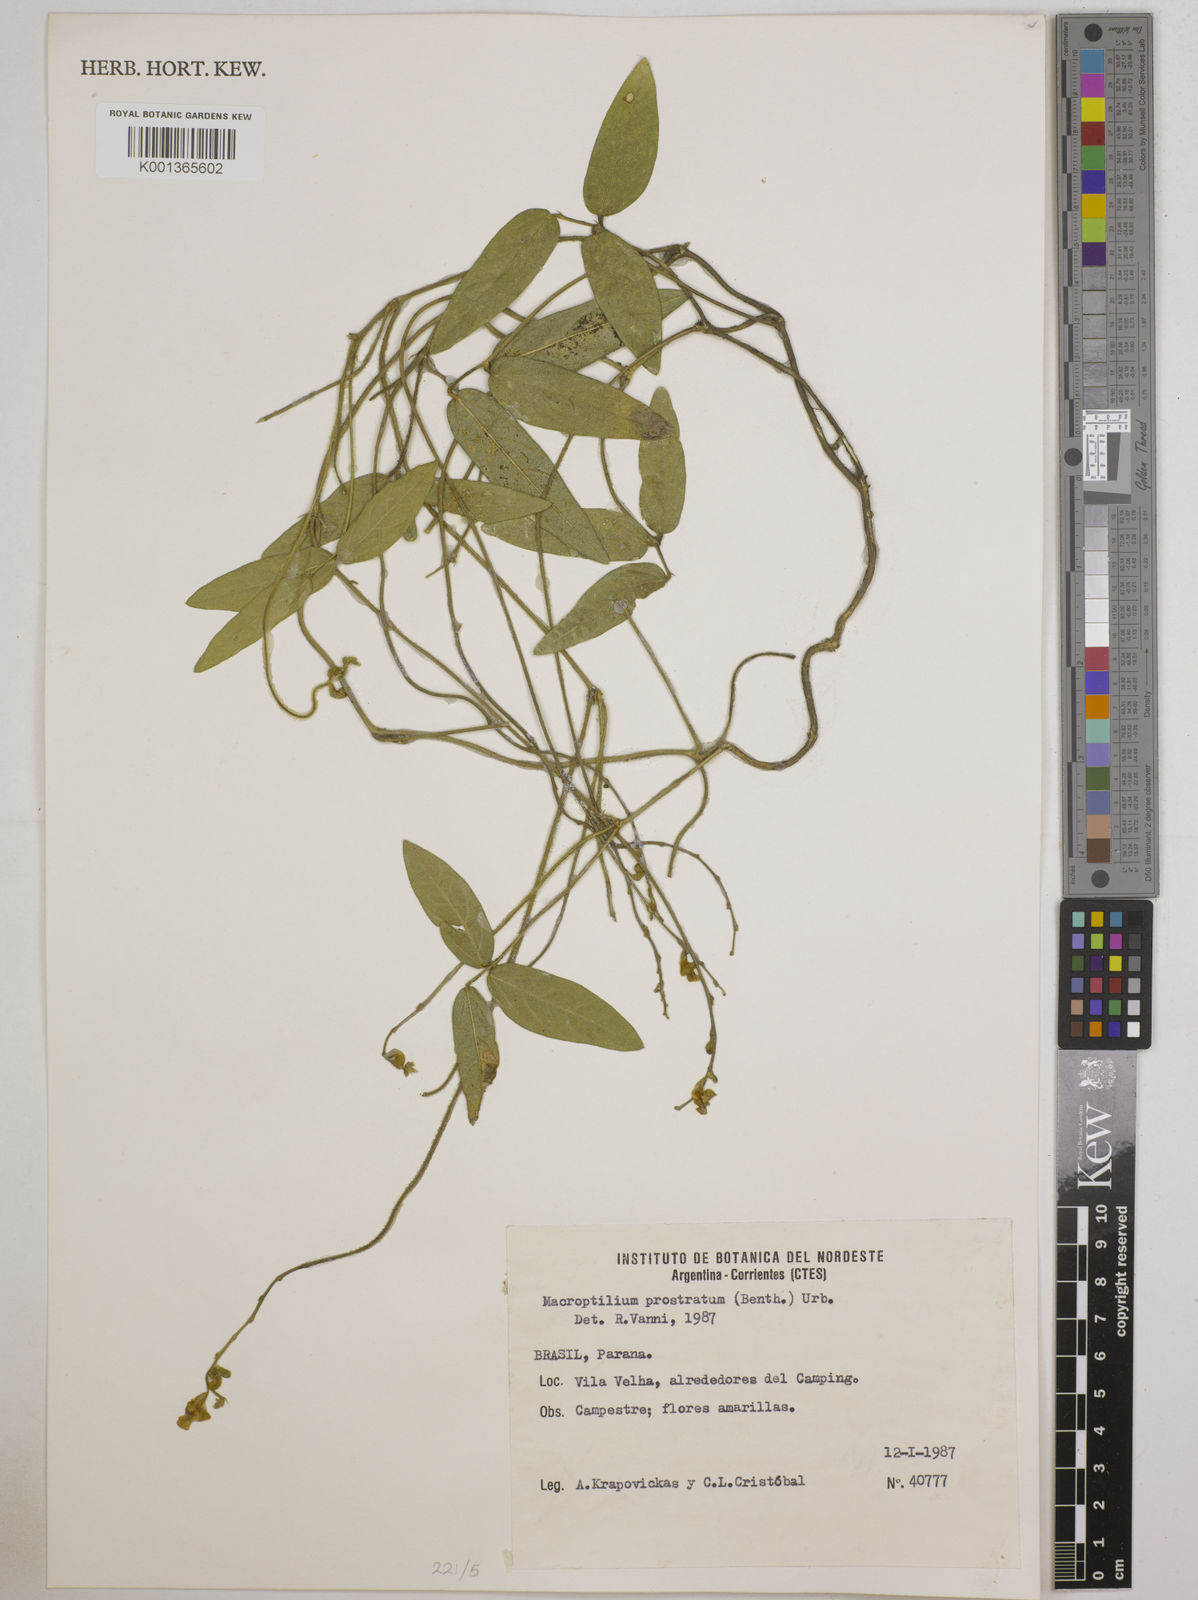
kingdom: Plantae
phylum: Tracheophyta
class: Magnoliopsida
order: Fabales
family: Fabaceae
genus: Macroptilium
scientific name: Macroptilium prostratum
